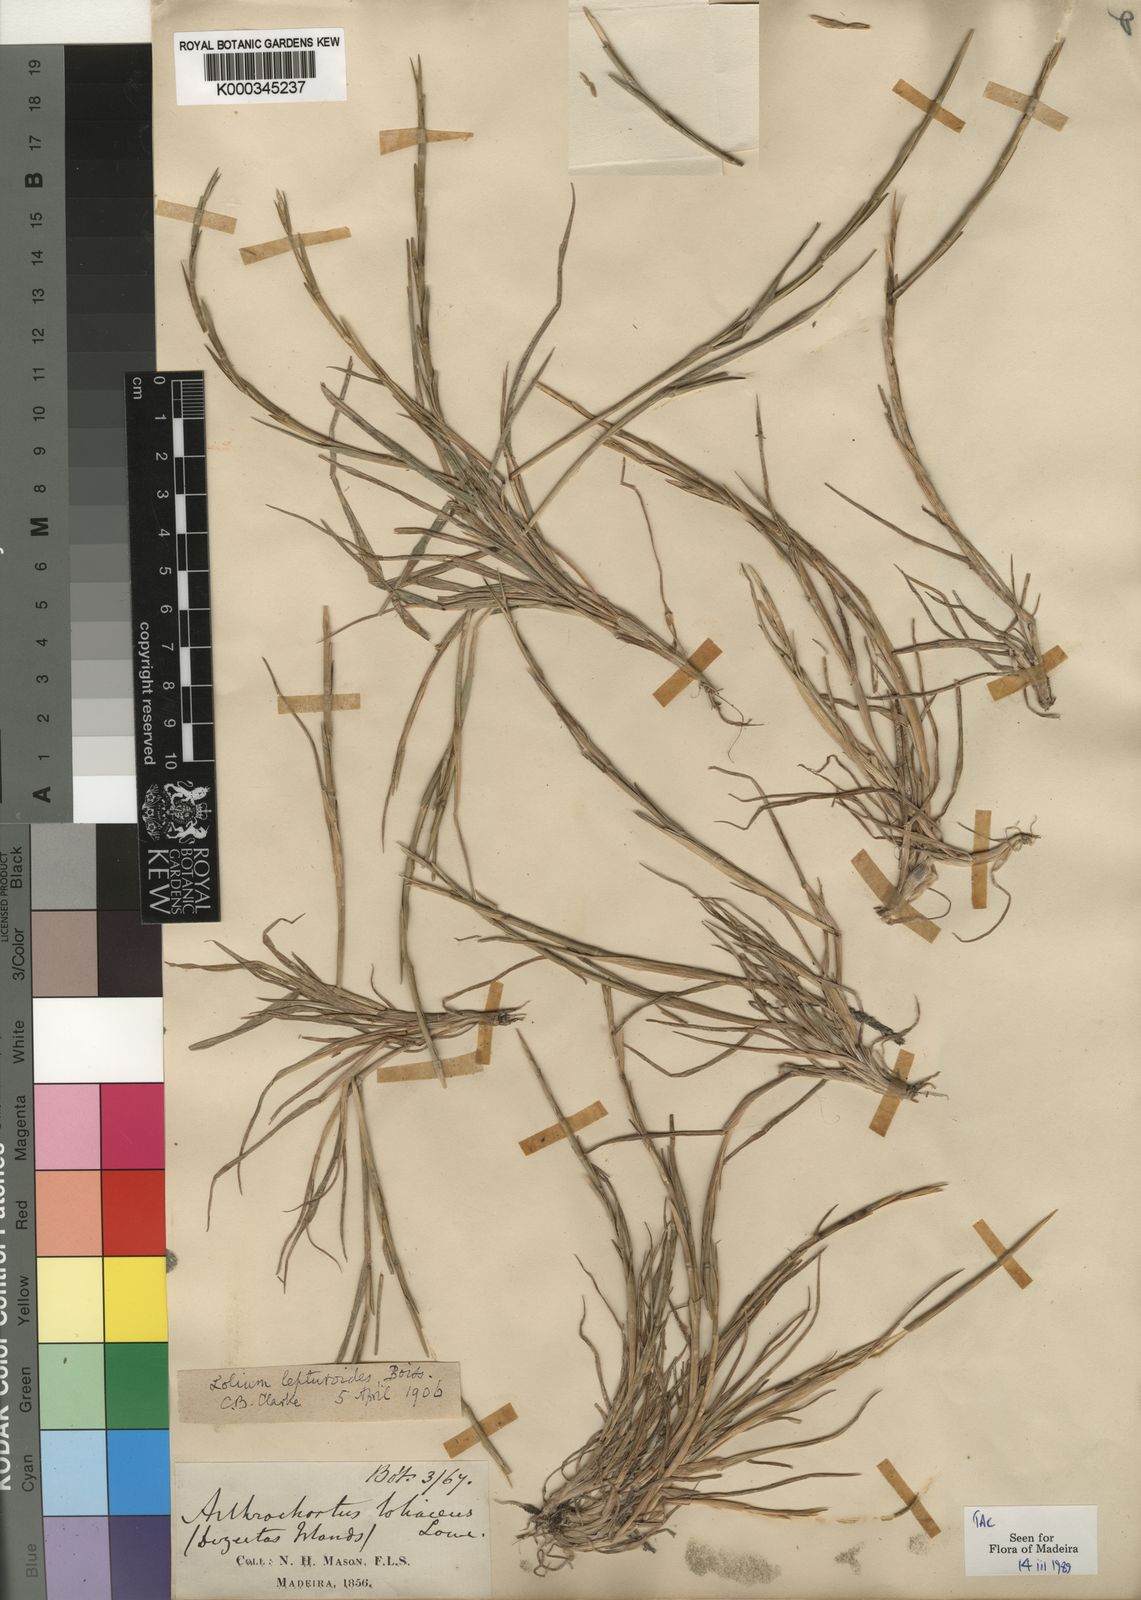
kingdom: Plantae
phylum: Tracheophyta
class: Liliopsida
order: Poales
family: Poaceae
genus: Festuca
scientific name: Festuca Vulpia rigida
